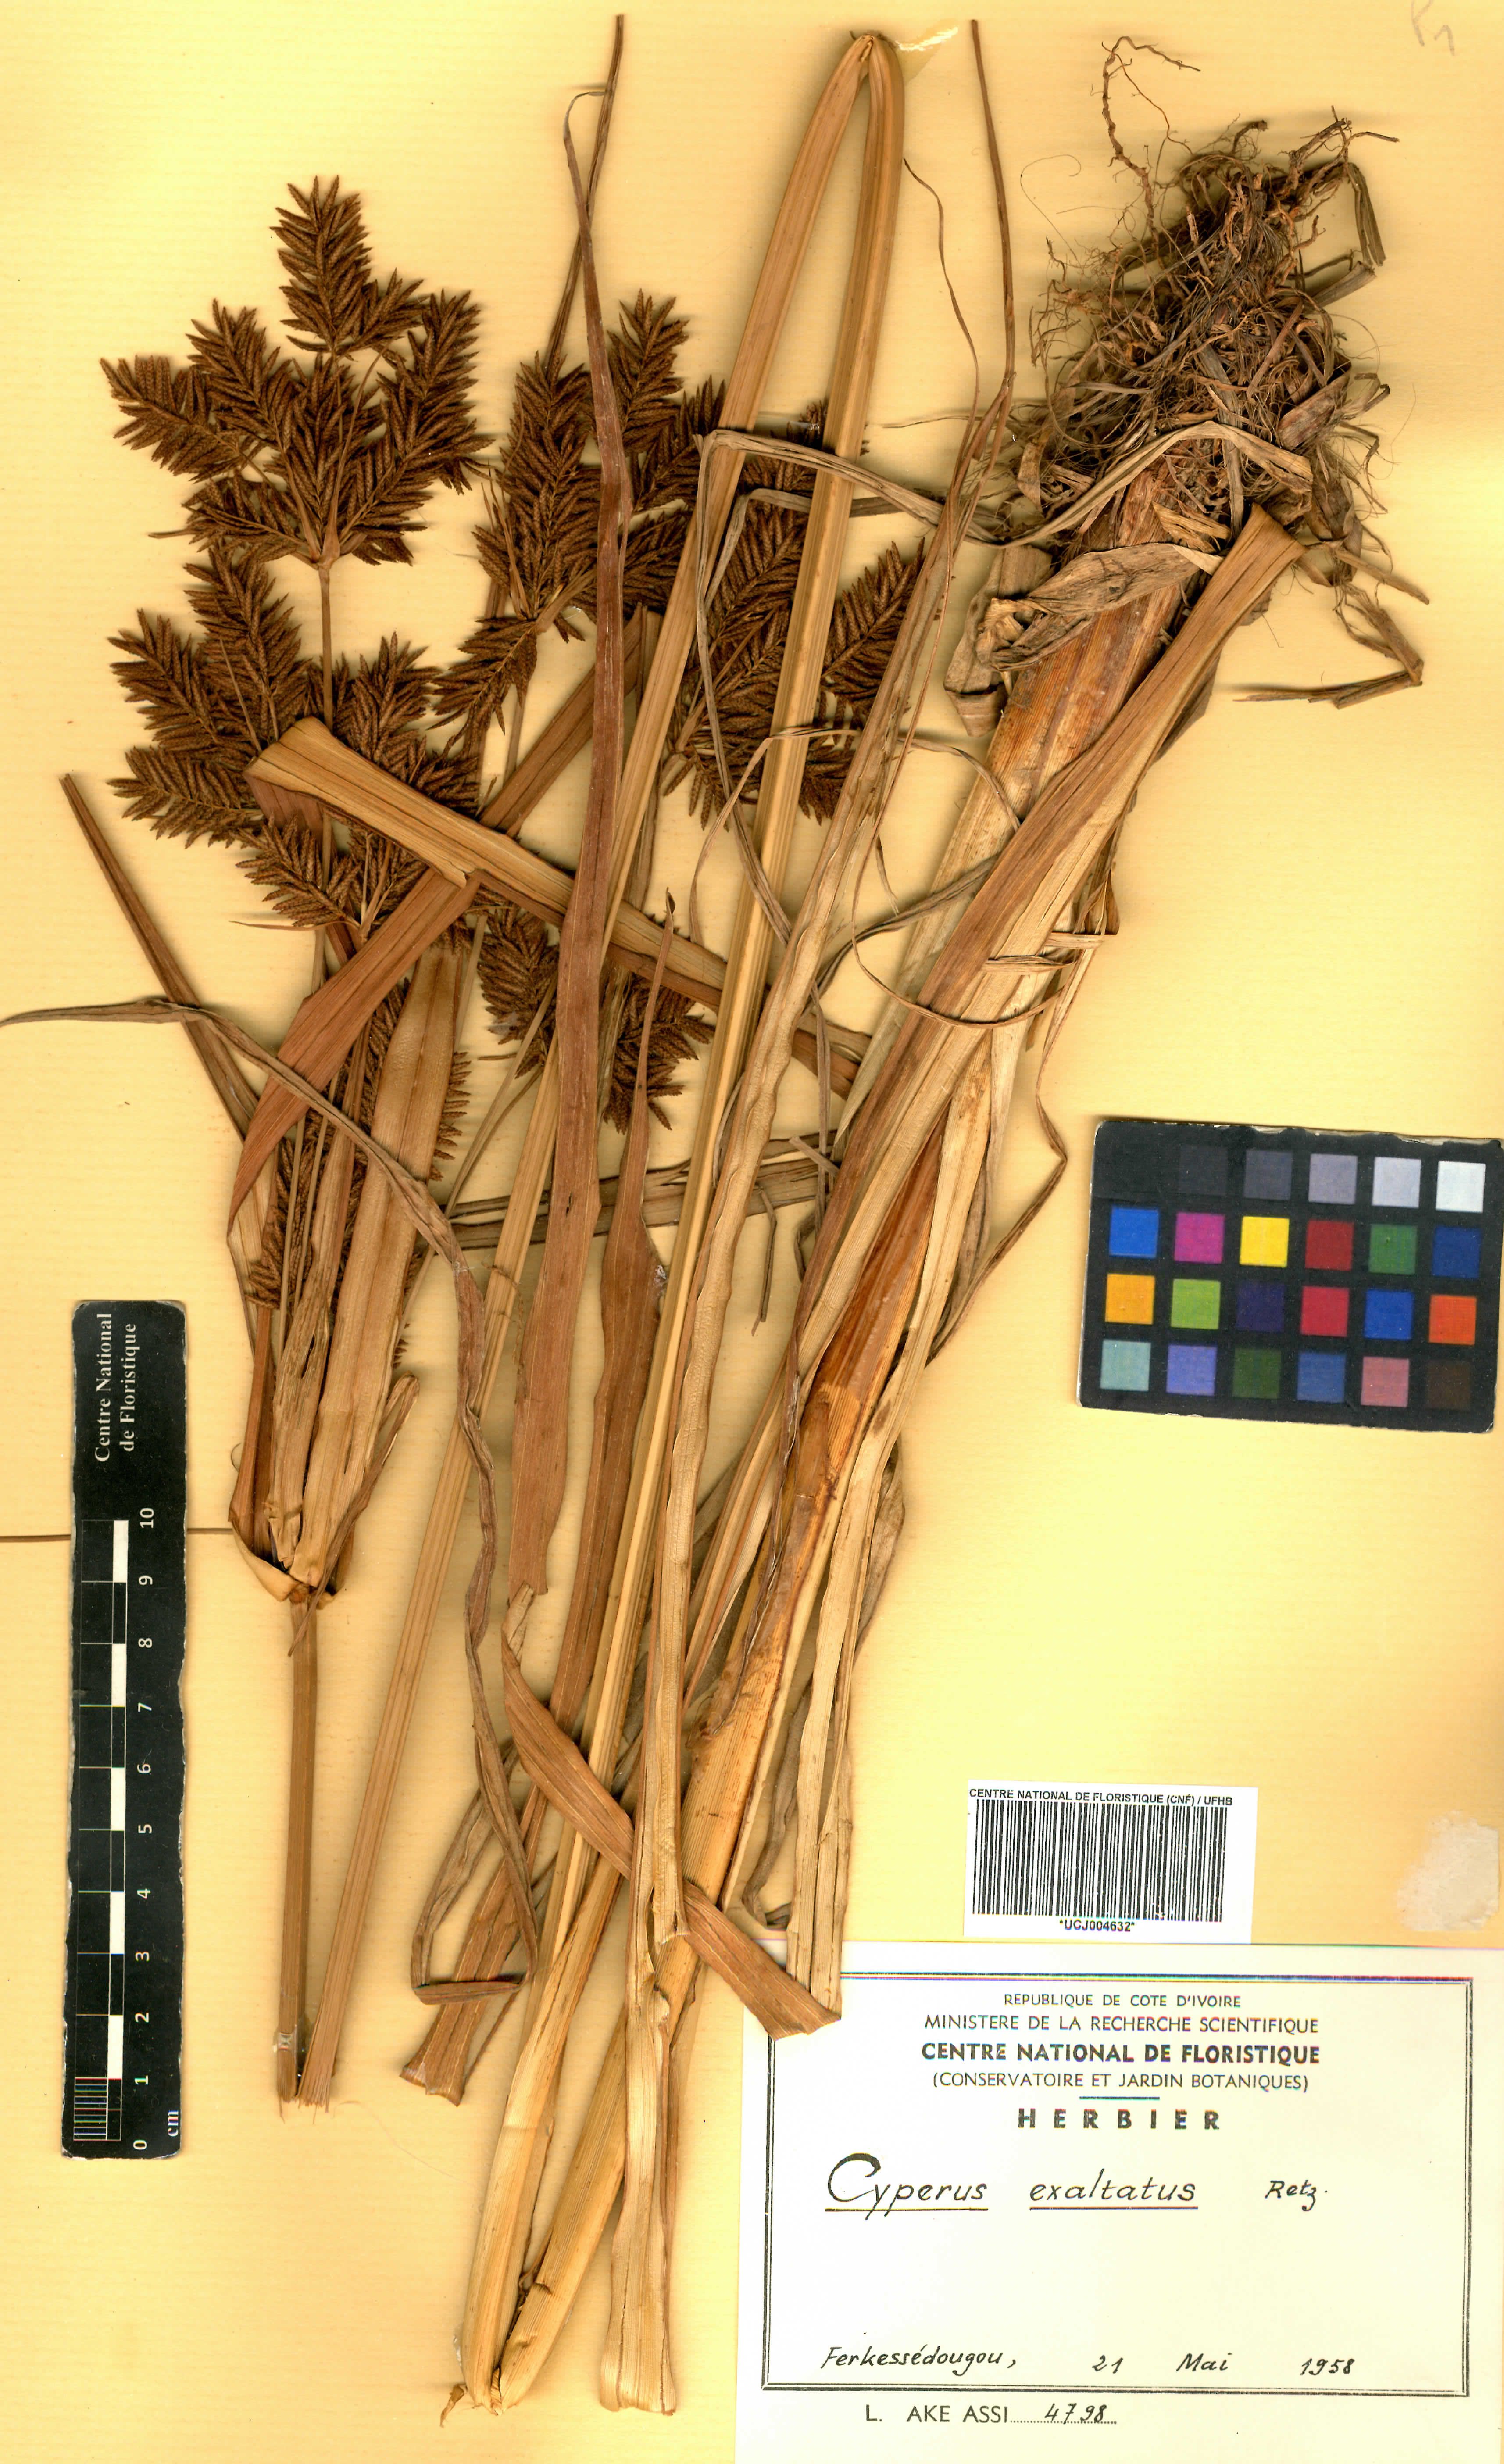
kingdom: Plantae
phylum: Tracheophyta
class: Liliopsida
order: Poales
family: Cyperaceae
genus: Cyperus
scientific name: Cyperus exaltatus
